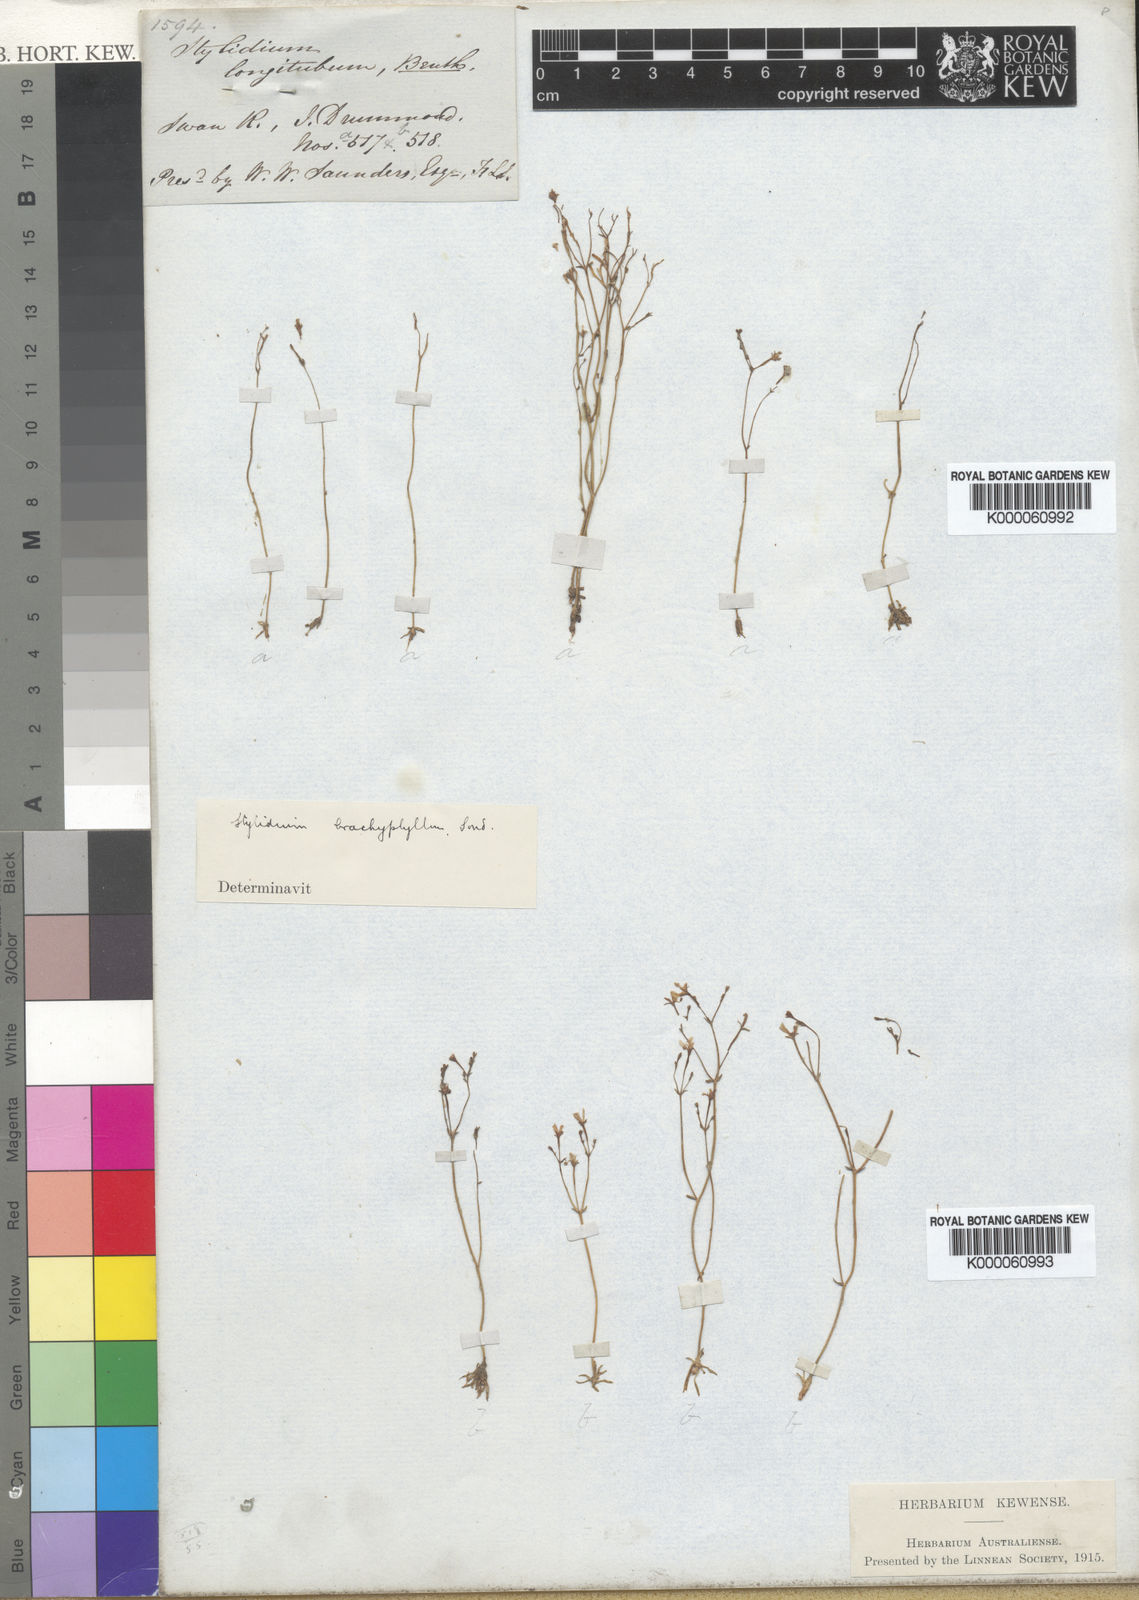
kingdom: Plantae
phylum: Tracheophyta
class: Magnoliopsida
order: Asterales
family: Stylidiaceae
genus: Stylidium
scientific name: Stylidium despectum
